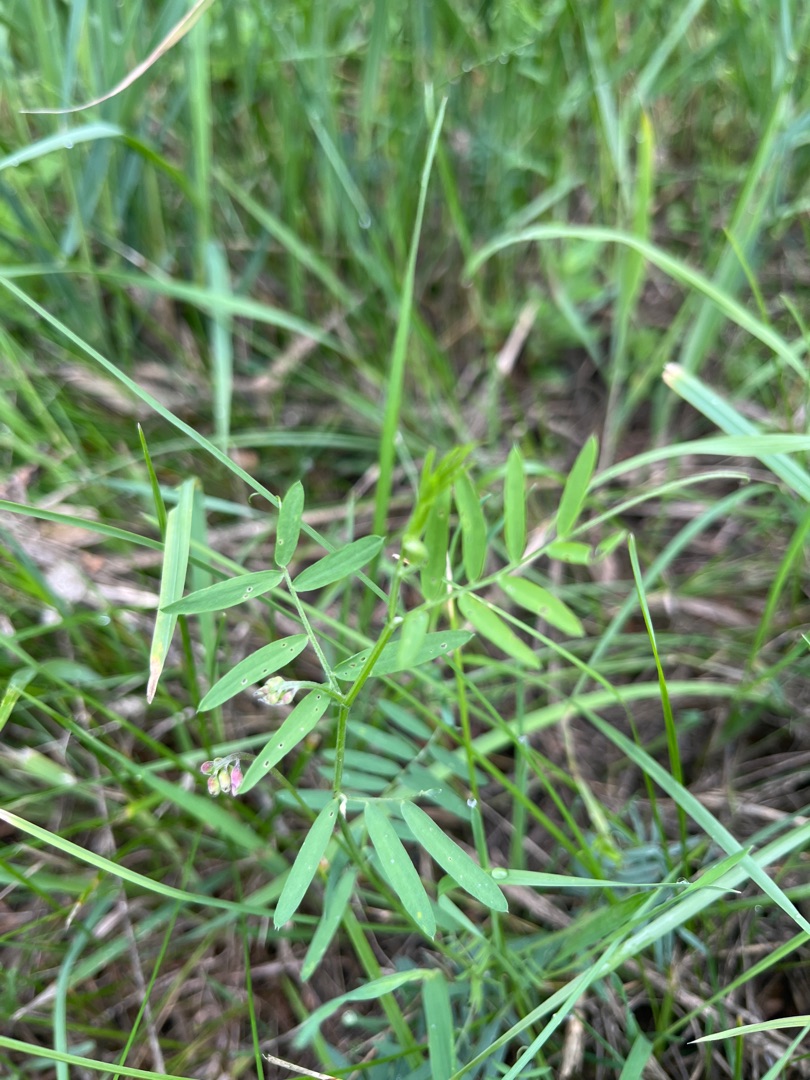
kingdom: Plantae
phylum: Tracheophyta
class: Magnoliopsida
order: Fabales
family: Fabaceae
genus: Vicia
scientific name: Vicia cracca
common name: Muse-vikke
